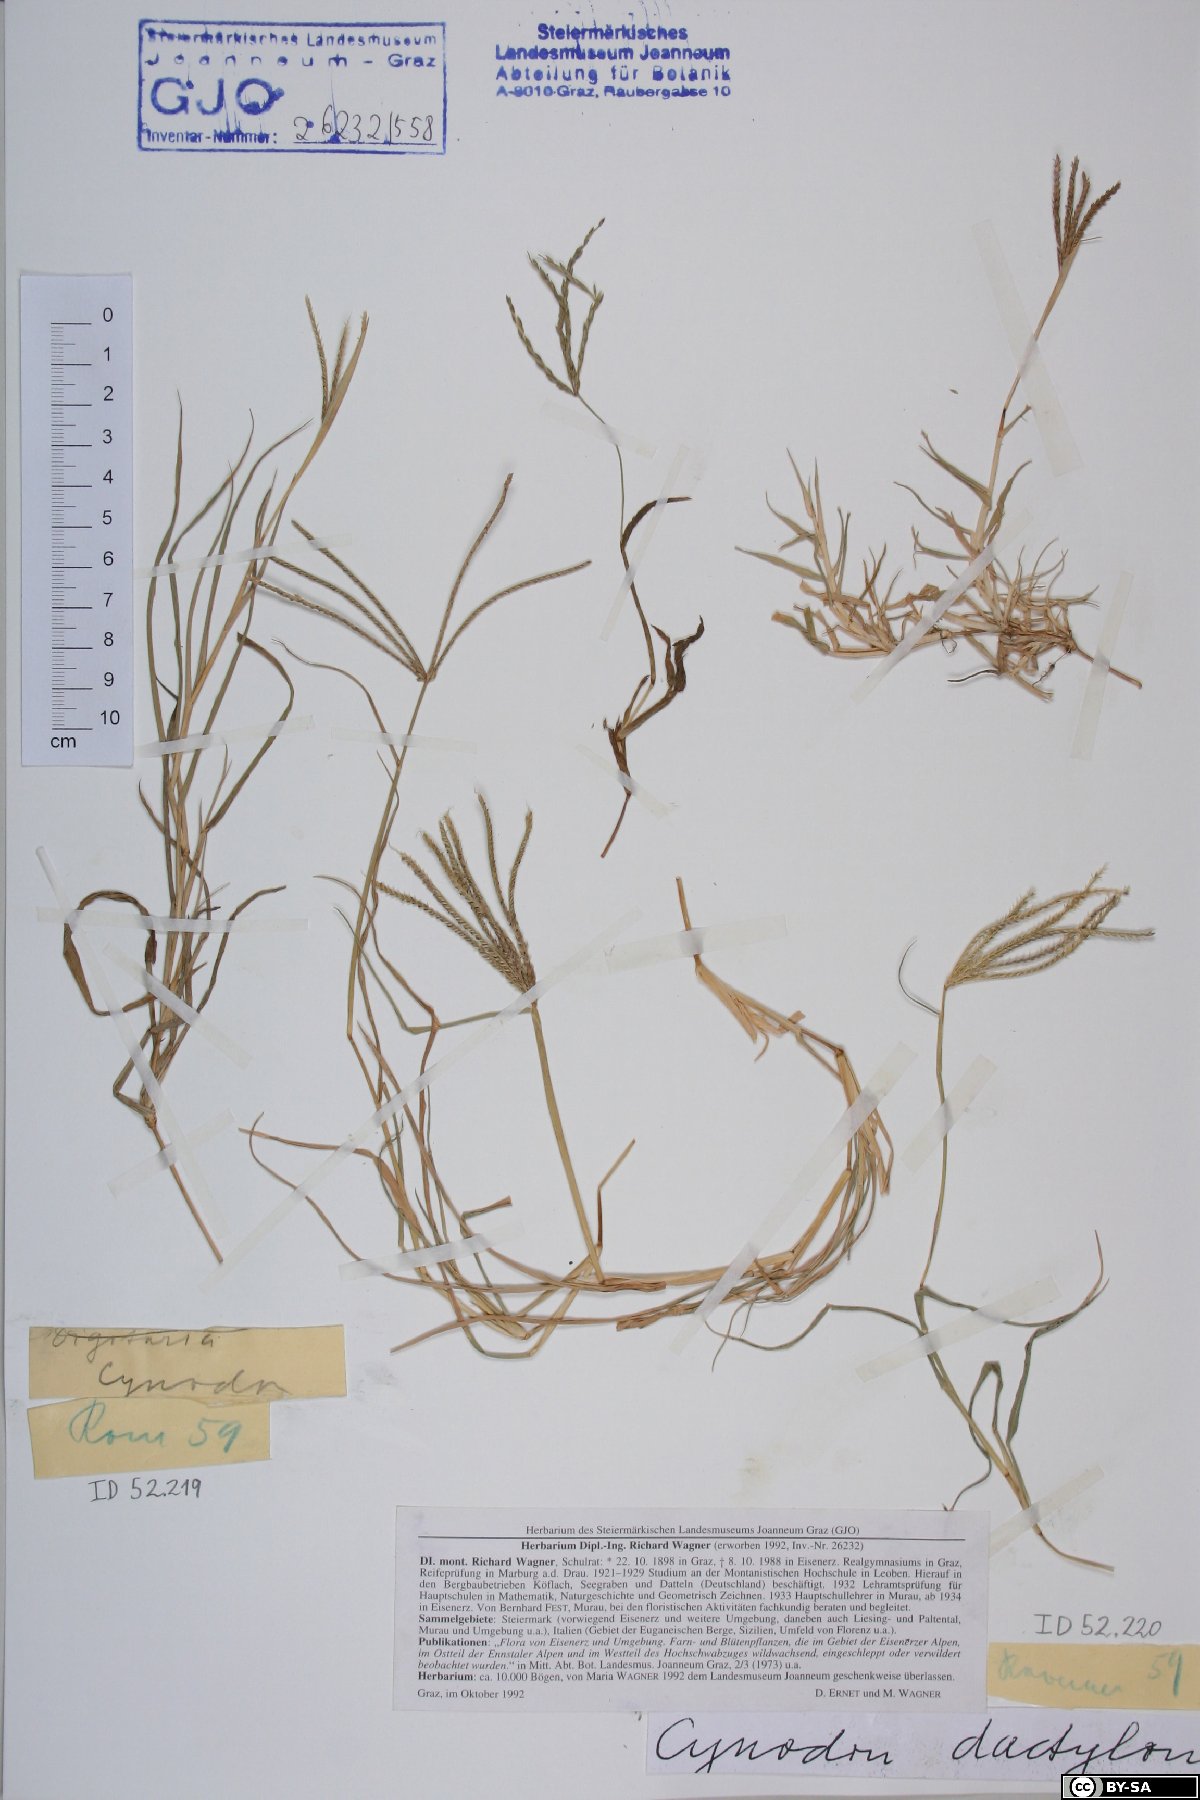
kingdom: Plantae
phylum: Tracheophyta
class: Liliopsida
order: Poales
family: Poaceae
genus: Cynodon
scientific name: Cynodon dactylon
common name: Bermuda grass
